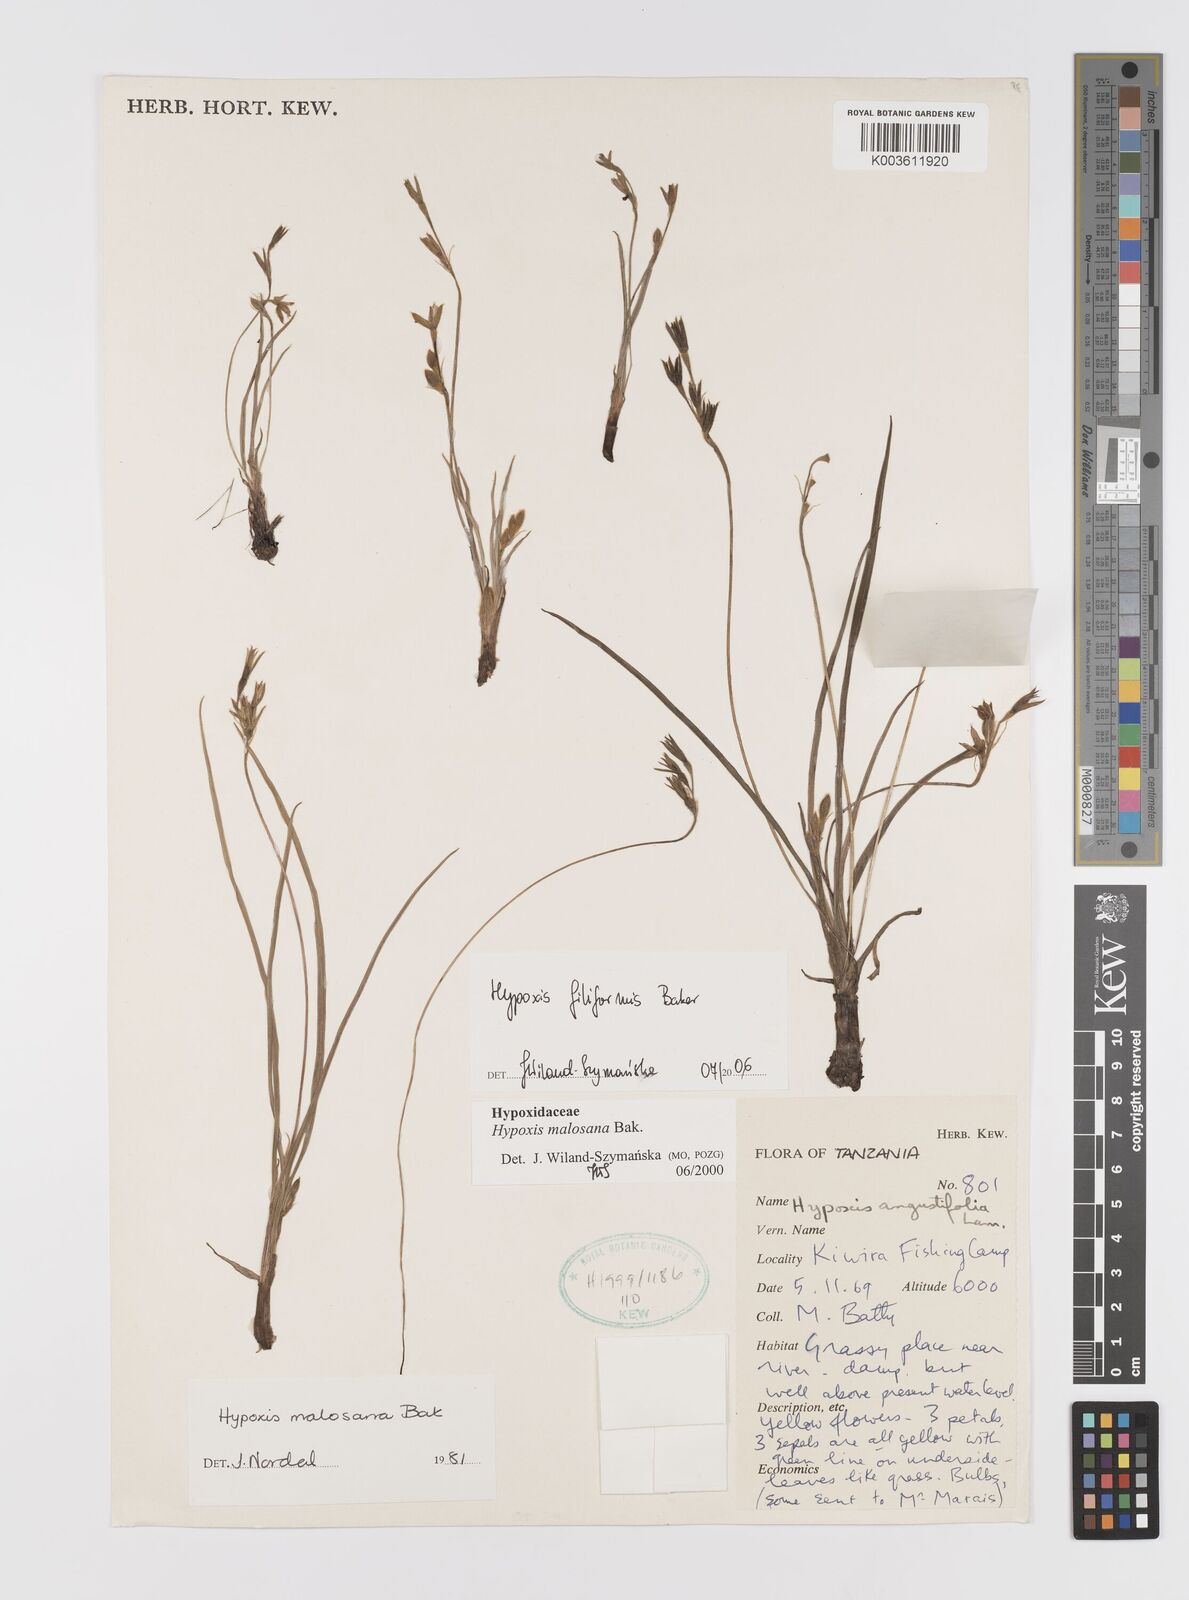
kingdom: Plantae
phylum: Tracheophyta
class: Liliopsida
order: Asparagales
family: Hypoxidaceae
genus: Hypoxis
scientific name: Hypoxis filiformis
